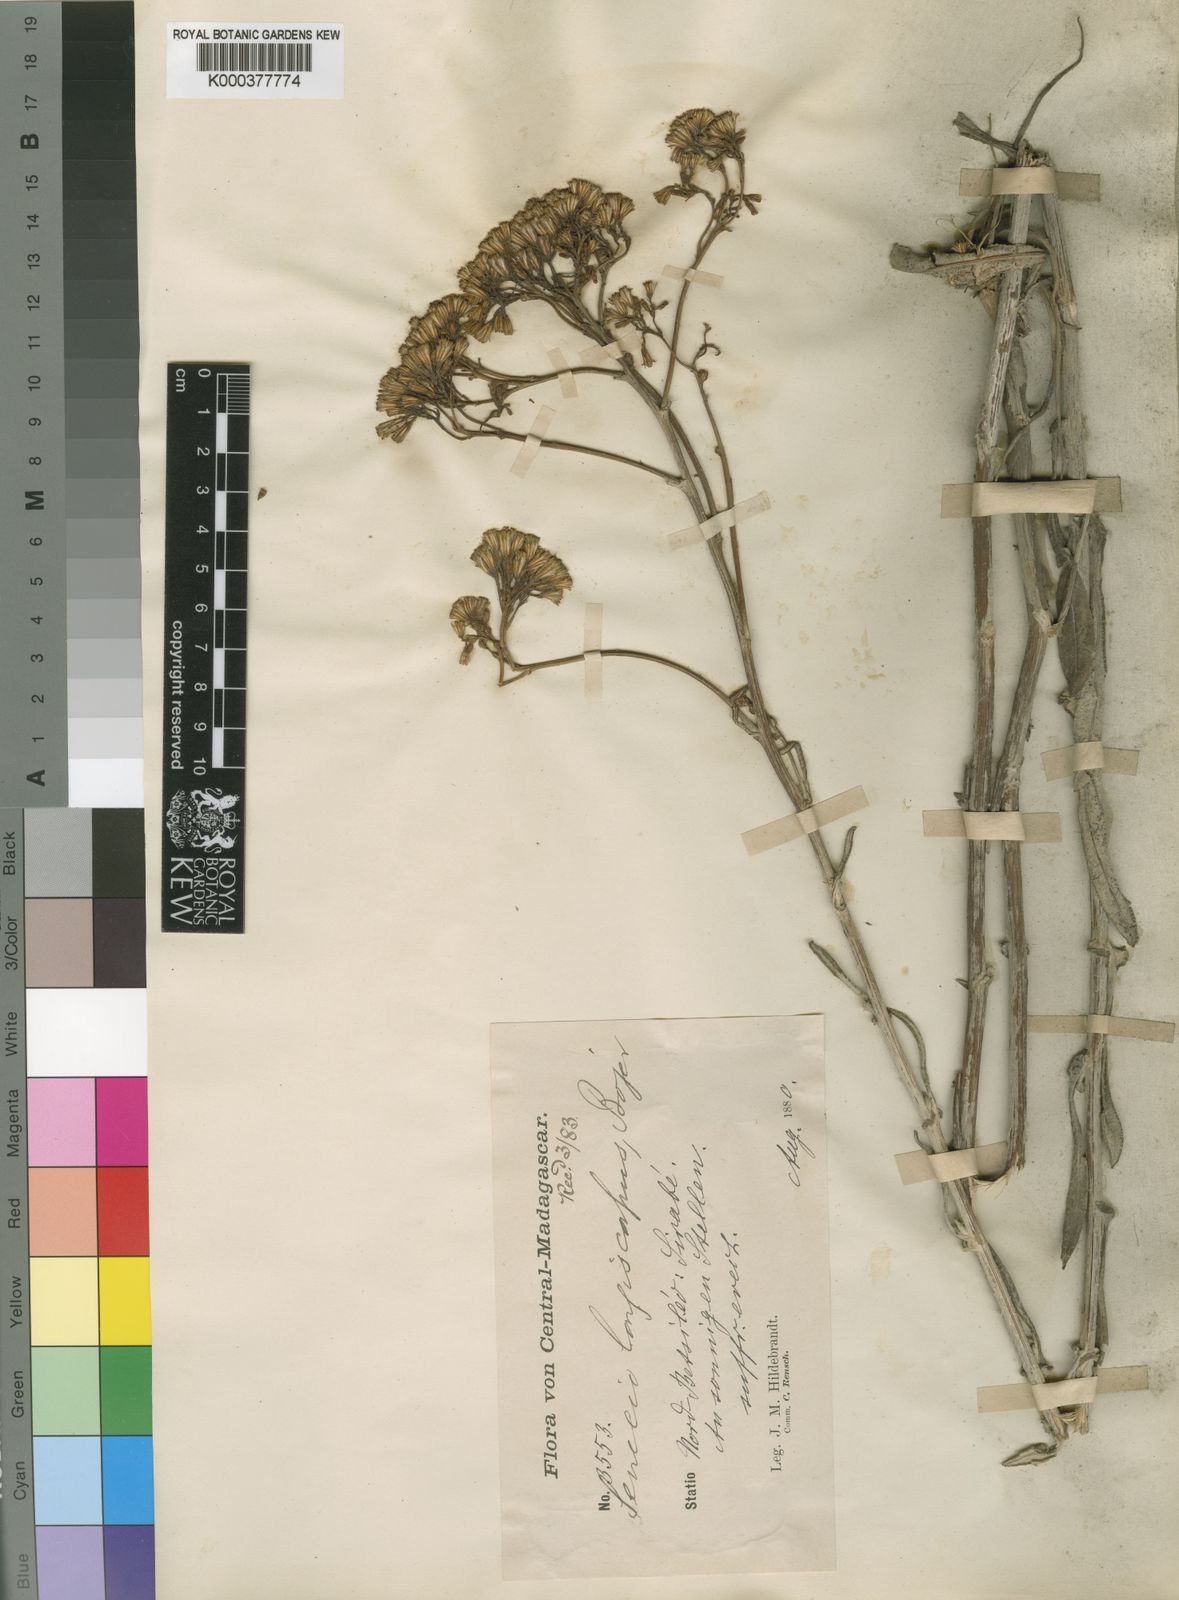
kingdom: Plantae
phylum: Tracheophyta
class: Magnoliopsida
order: Asterales
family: Asteraceae
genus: Senecio
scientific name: Senecio longiscapus
